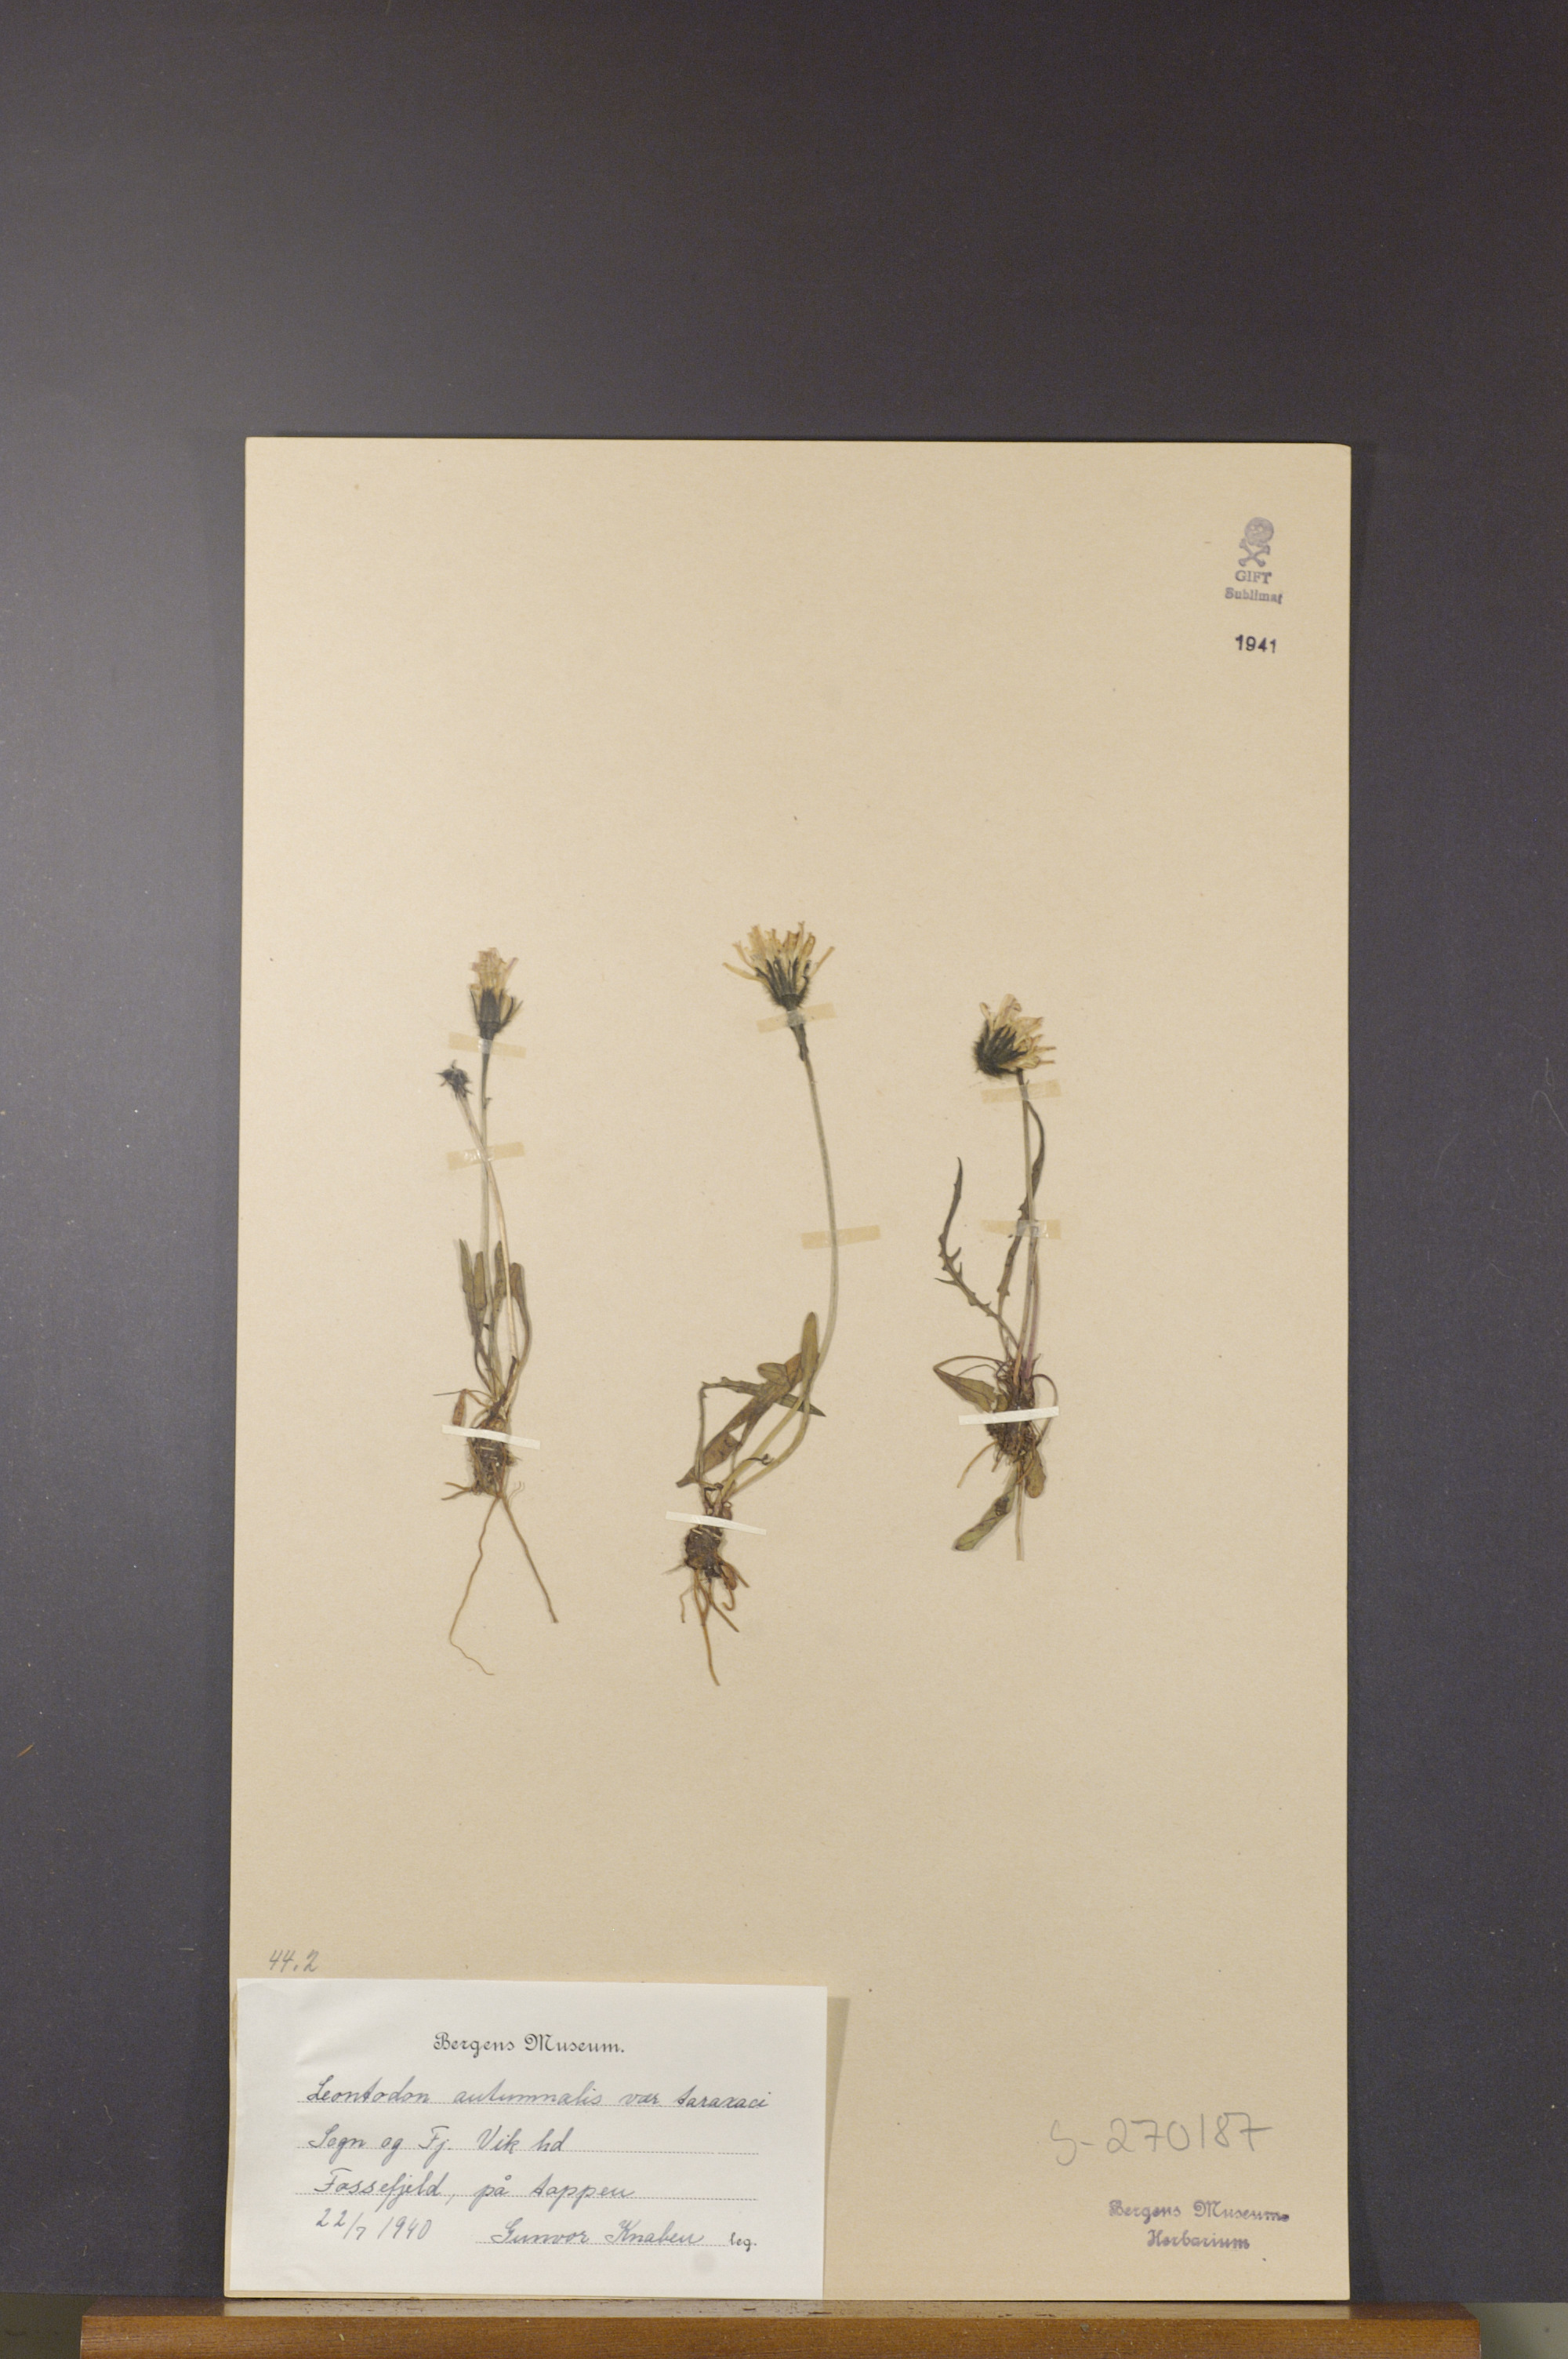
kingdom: Plantae
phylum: Tracheophyta
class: Magnoliopsida
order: Asterales
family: Asteraceae
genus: Scorzoneroides
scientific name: Scorzoneroides autumnalis
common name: Autumn hawkbit
